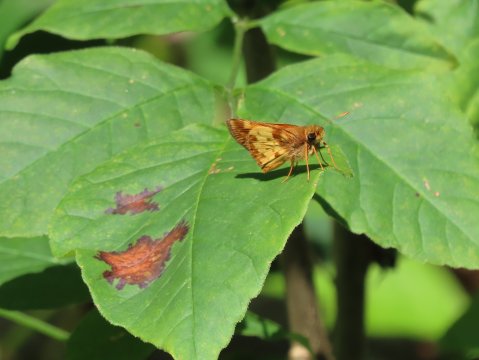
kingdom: Animalia
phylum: Arthropoda
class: Insecta
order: Lepidoptera
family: Hesperiidae
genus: Lon
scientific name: Lon zabulon
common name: Zabulon Skipper
